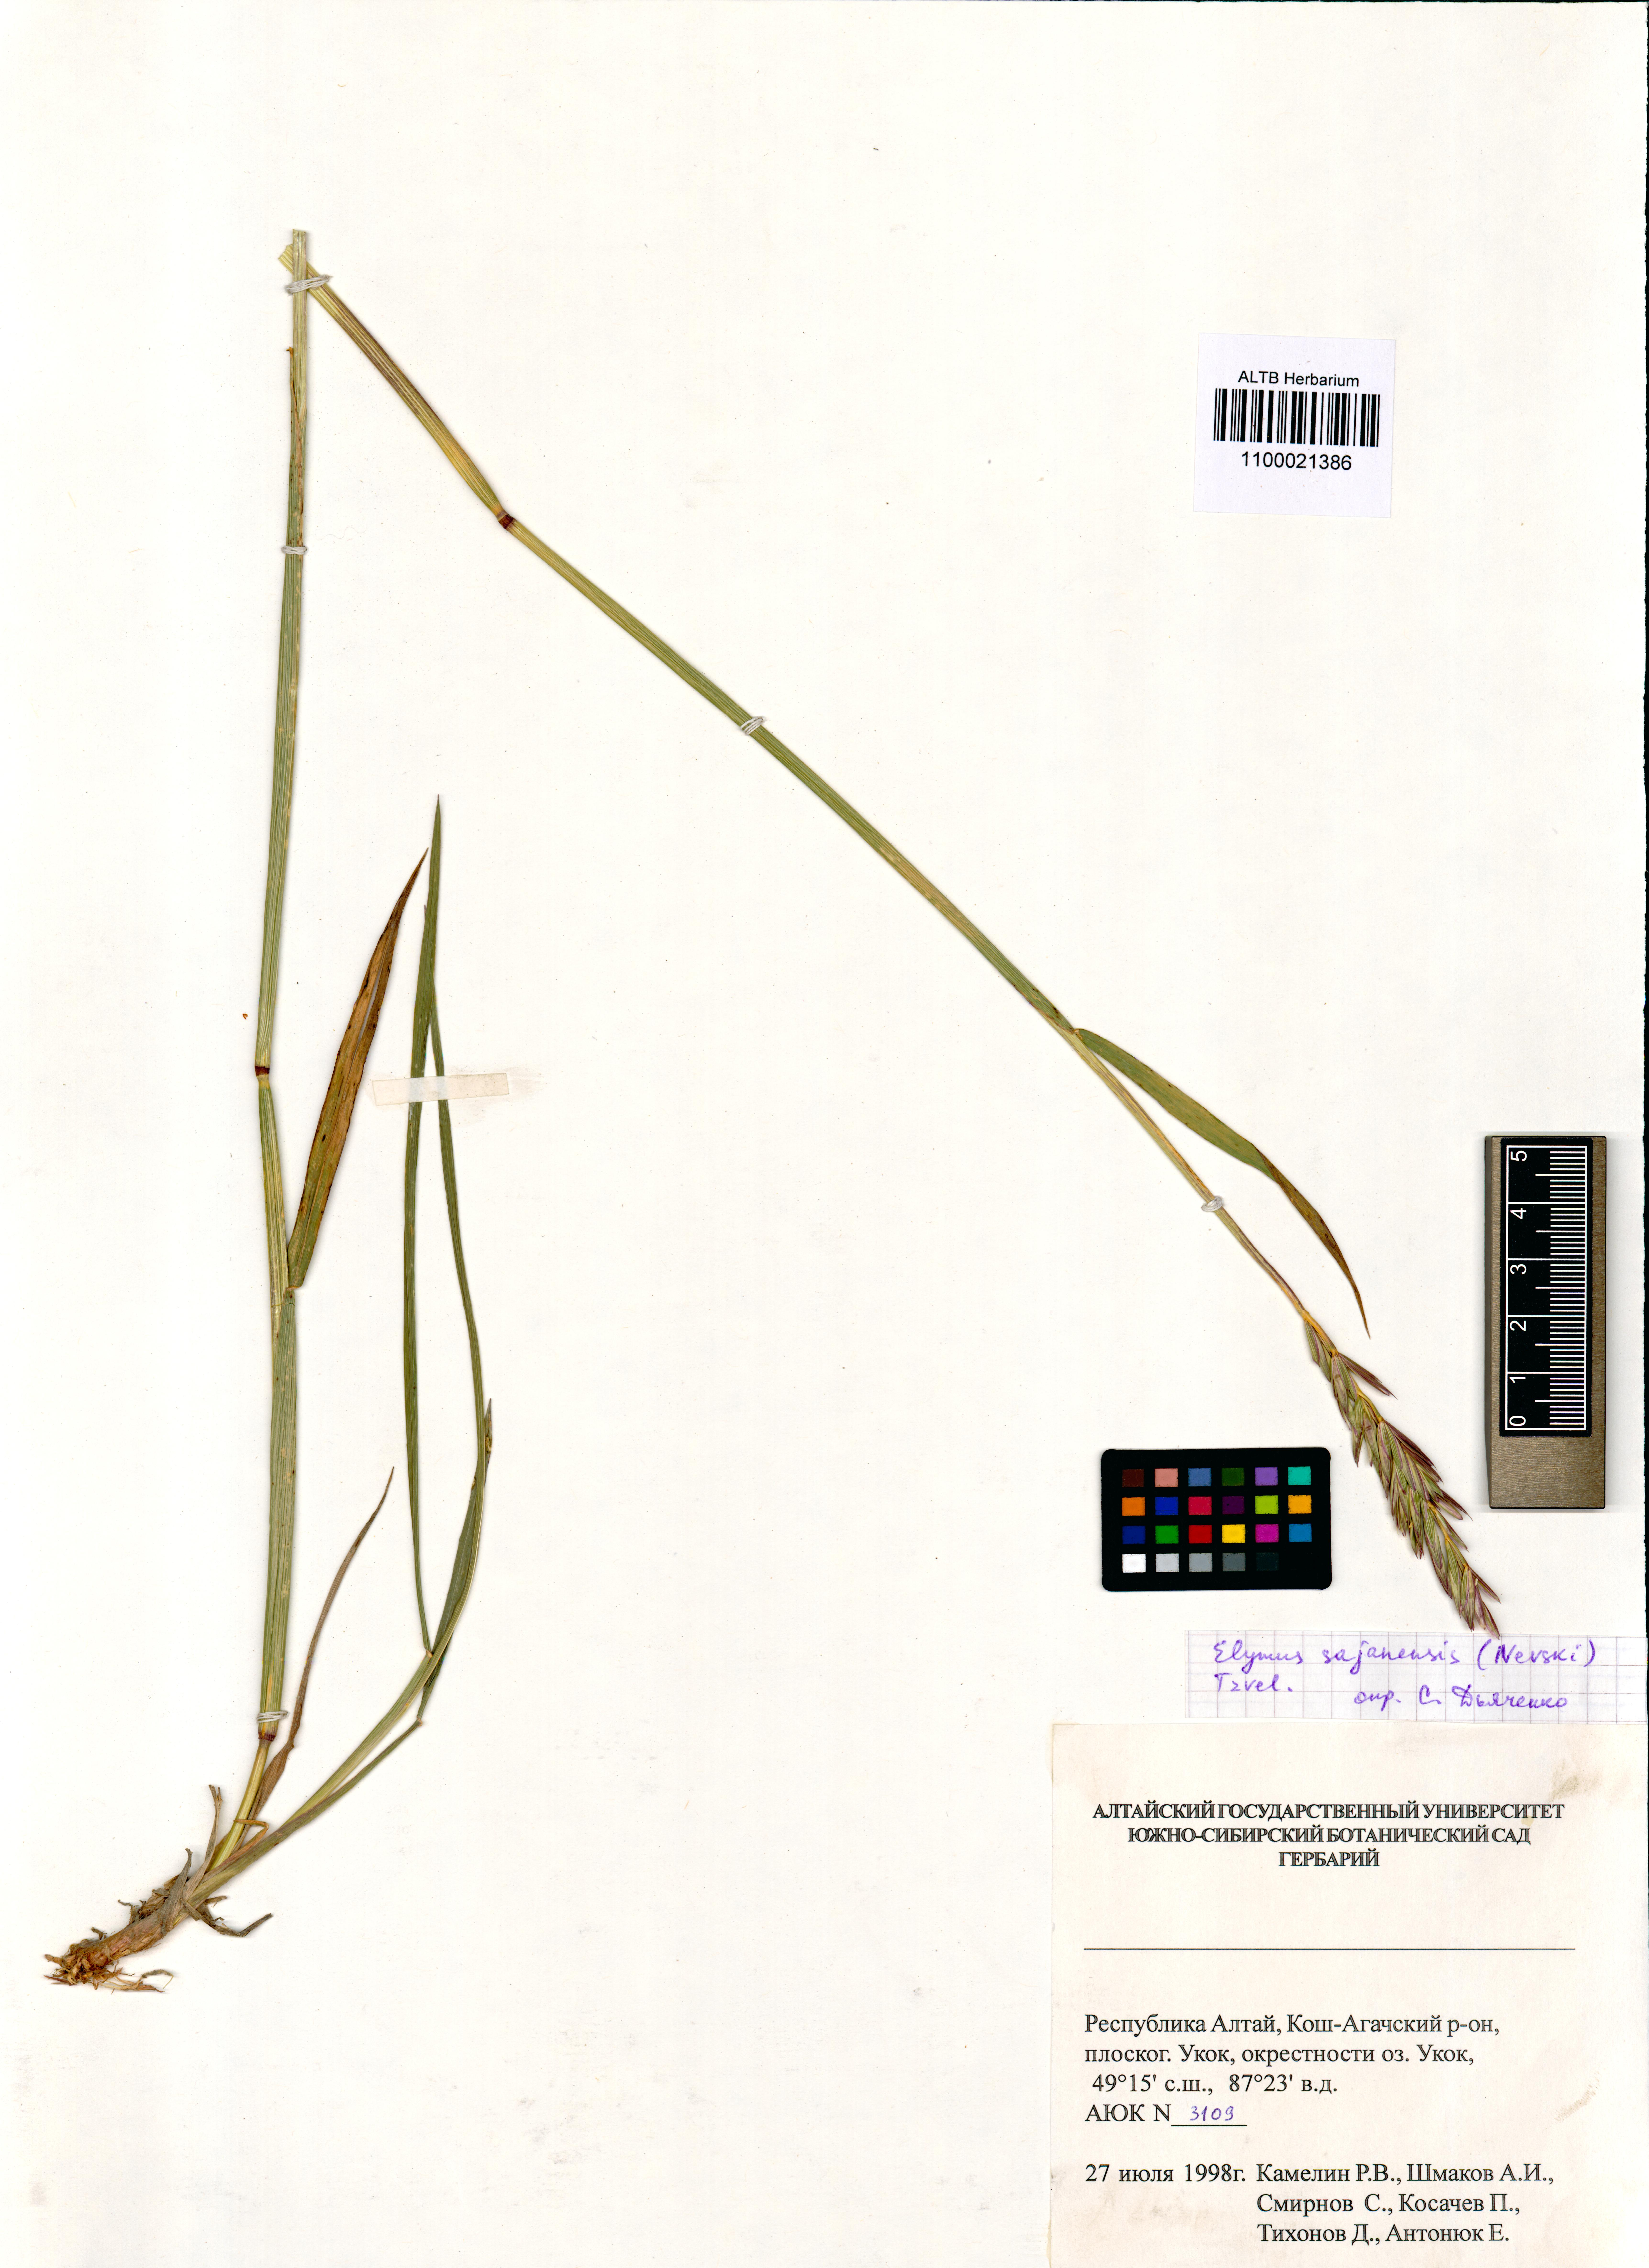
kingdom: Plantae
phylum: Tracheophyta
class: Liliopsida
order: Poales
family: Poaceae
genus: Elymus
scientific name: Elymus sajanensis
